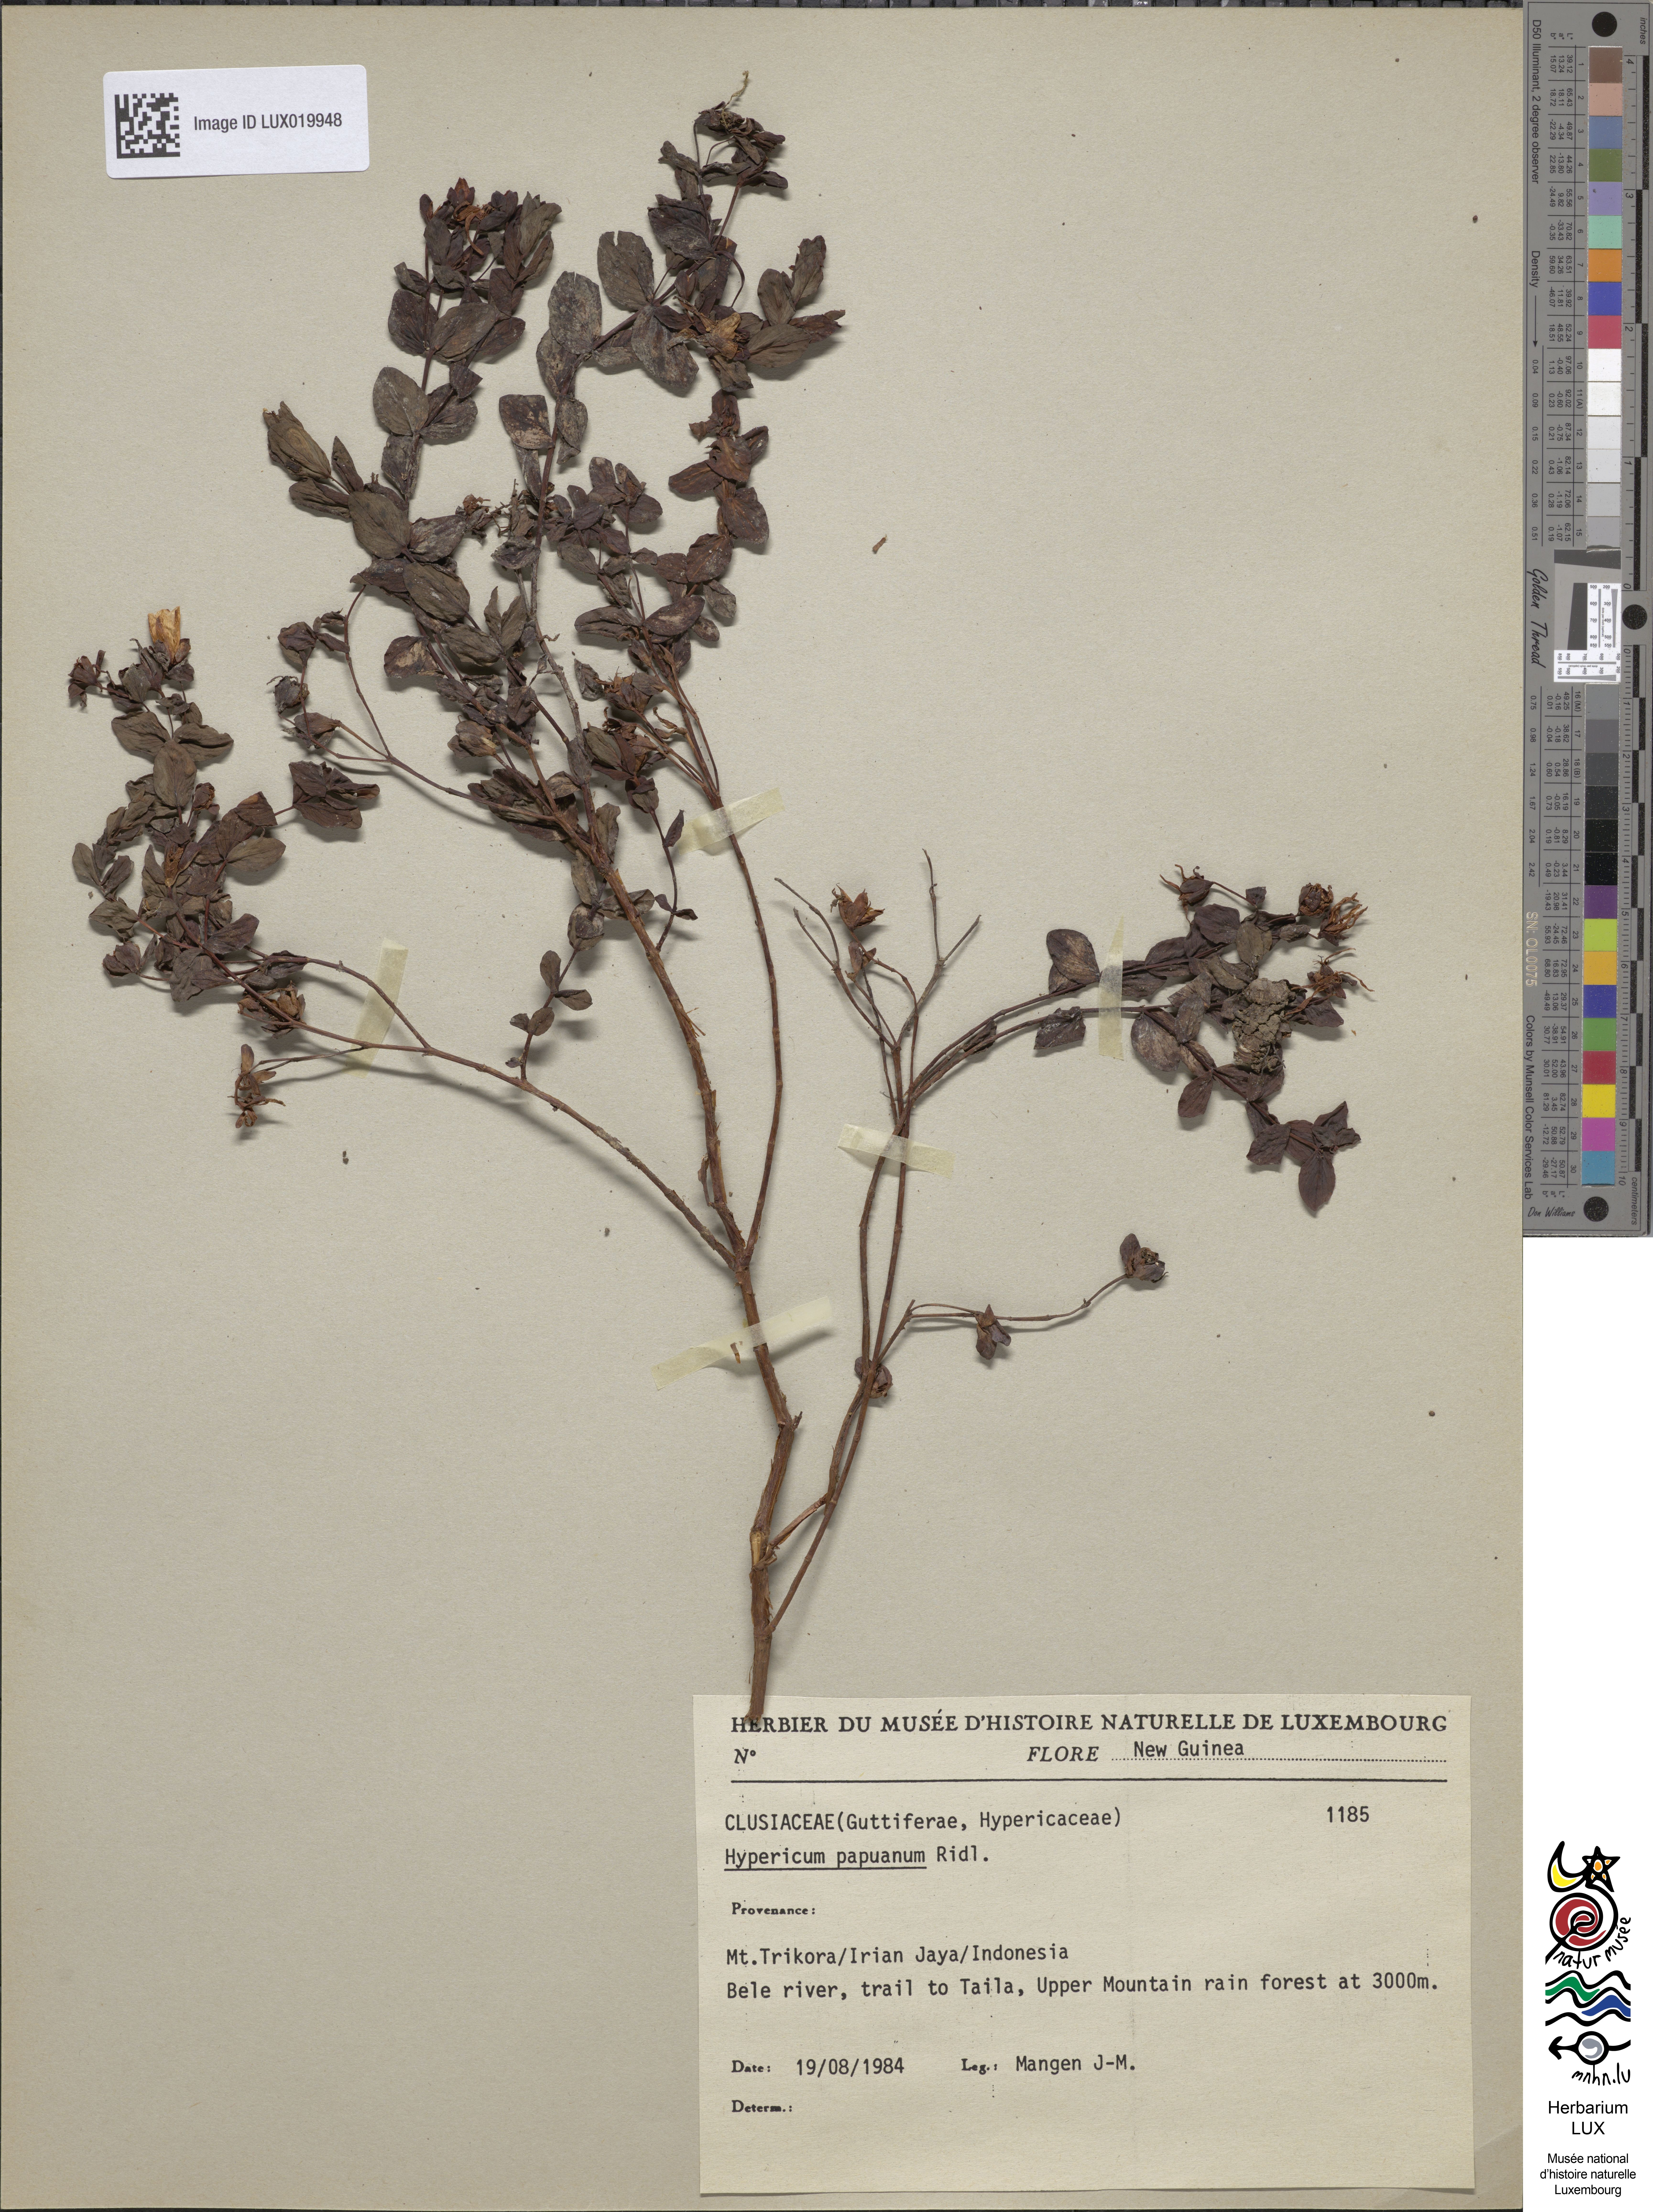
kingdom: Plantae
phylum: Tracheophyta
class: Magnoliopsida
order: Malpighiales
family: Hypericaceae
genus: Hypericum
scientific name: Hypericum papuanum
